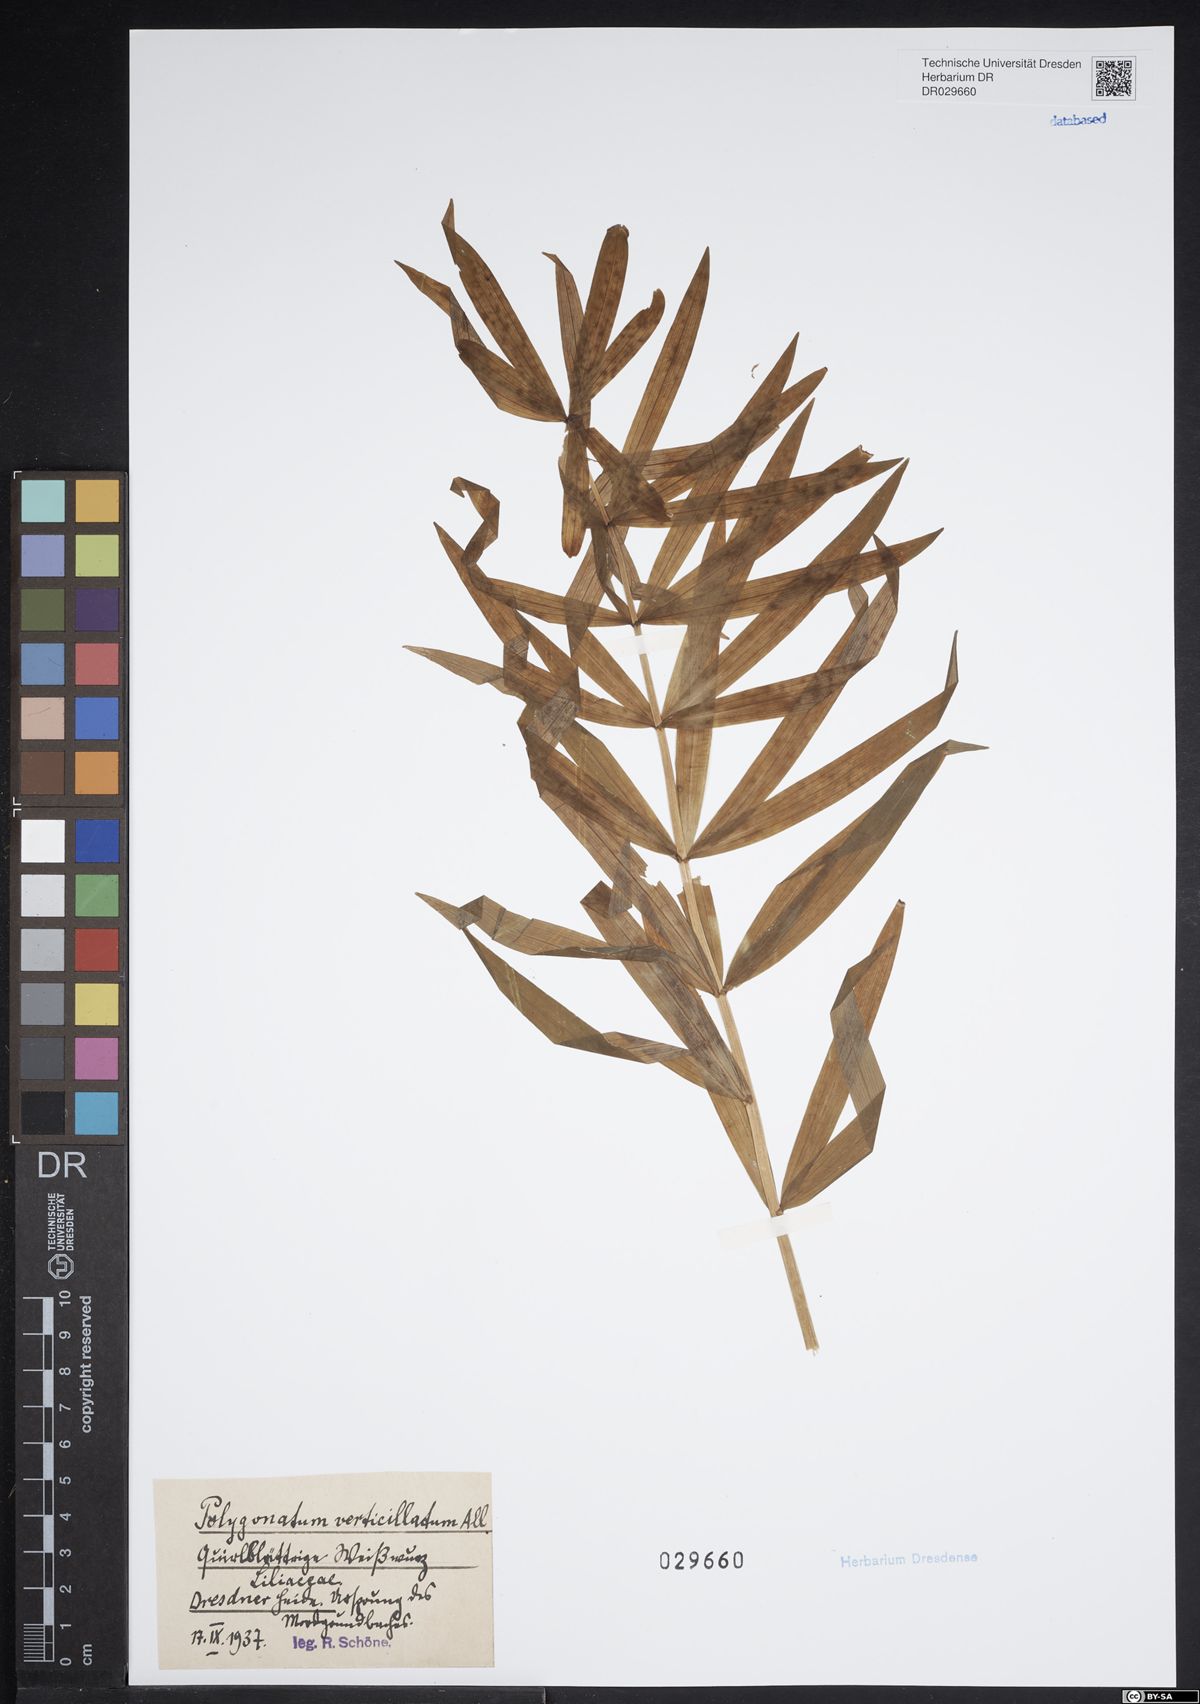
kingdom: Plantae
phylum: Tracheophyta
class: Liliopsida
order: Asparagales
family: Asparagaceae
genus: Polygonatum
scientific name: Polygonatum verticillatum
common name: Whorled solomon's-seal
